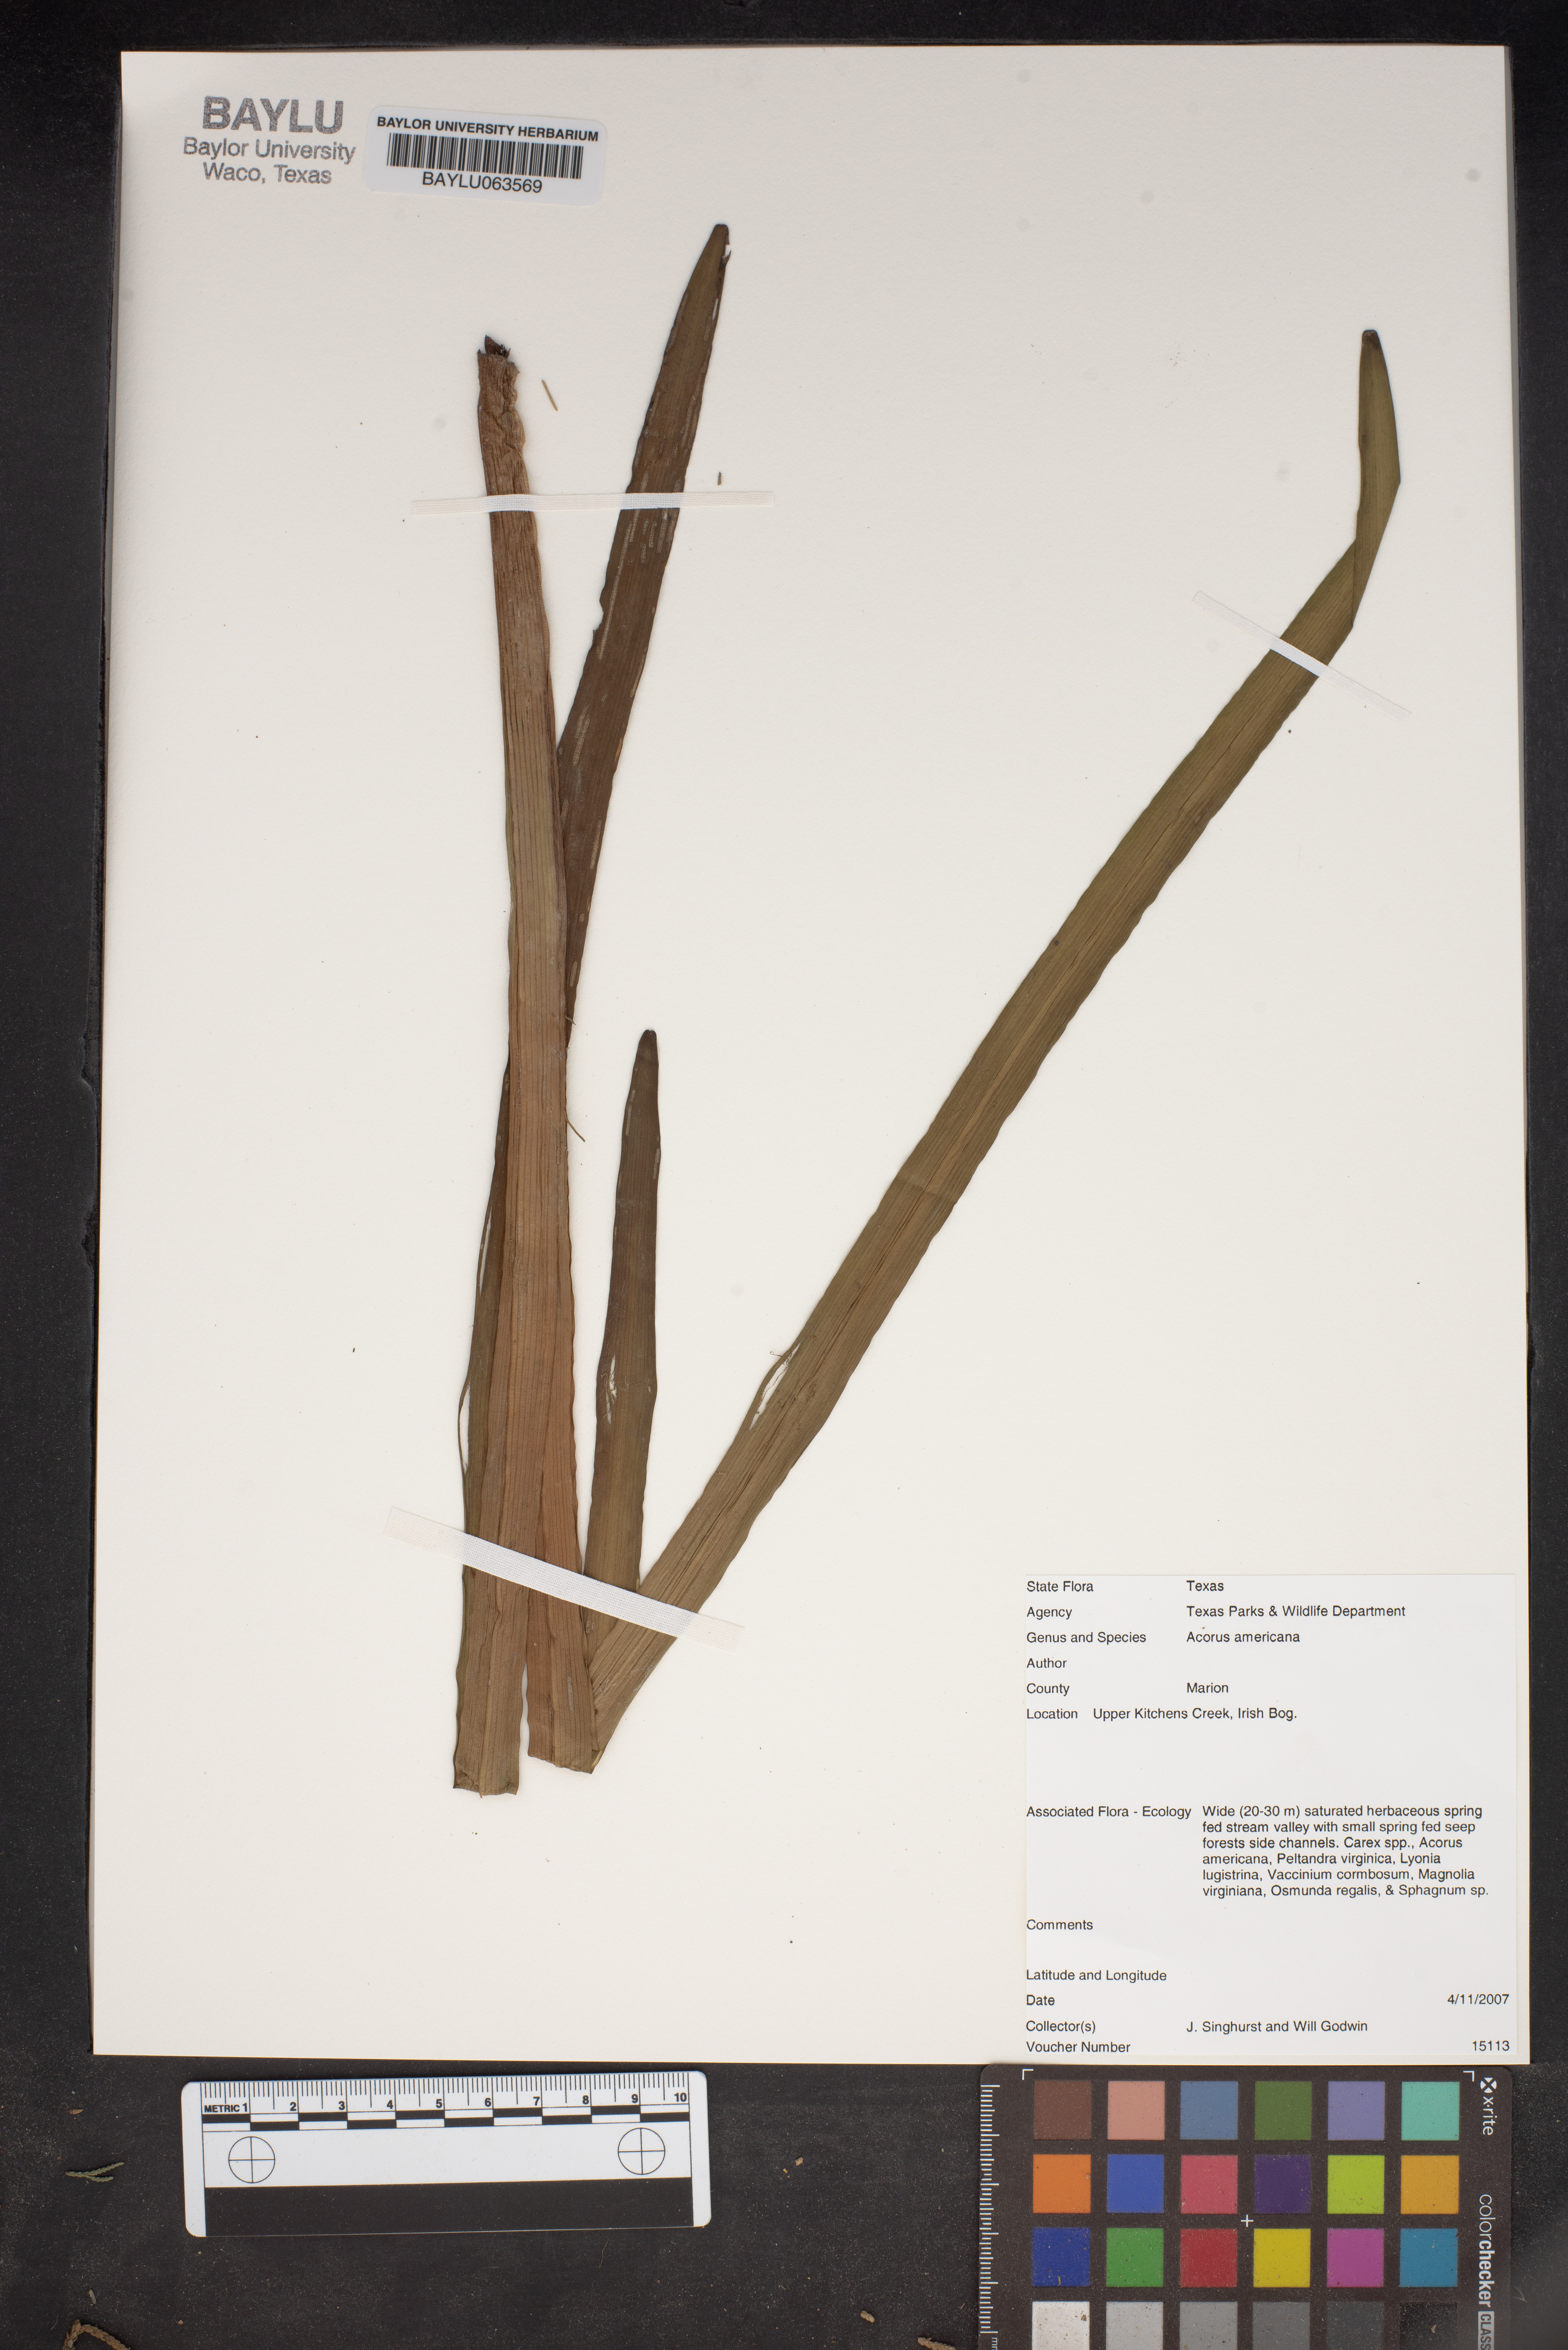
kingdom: Plantae
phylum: Tracheophyta
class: Liliopsida
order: Acorales
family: Acoraceae
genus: Acorus
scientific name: Acorus calamus
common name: Sweet-flag
